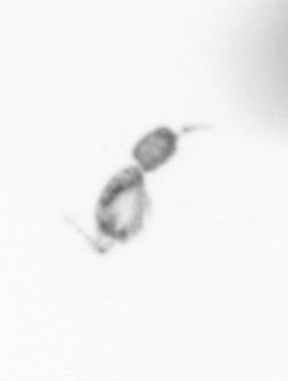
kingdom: Animalia
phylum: Arthropoda
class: Copepoda
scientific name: Copepoda
